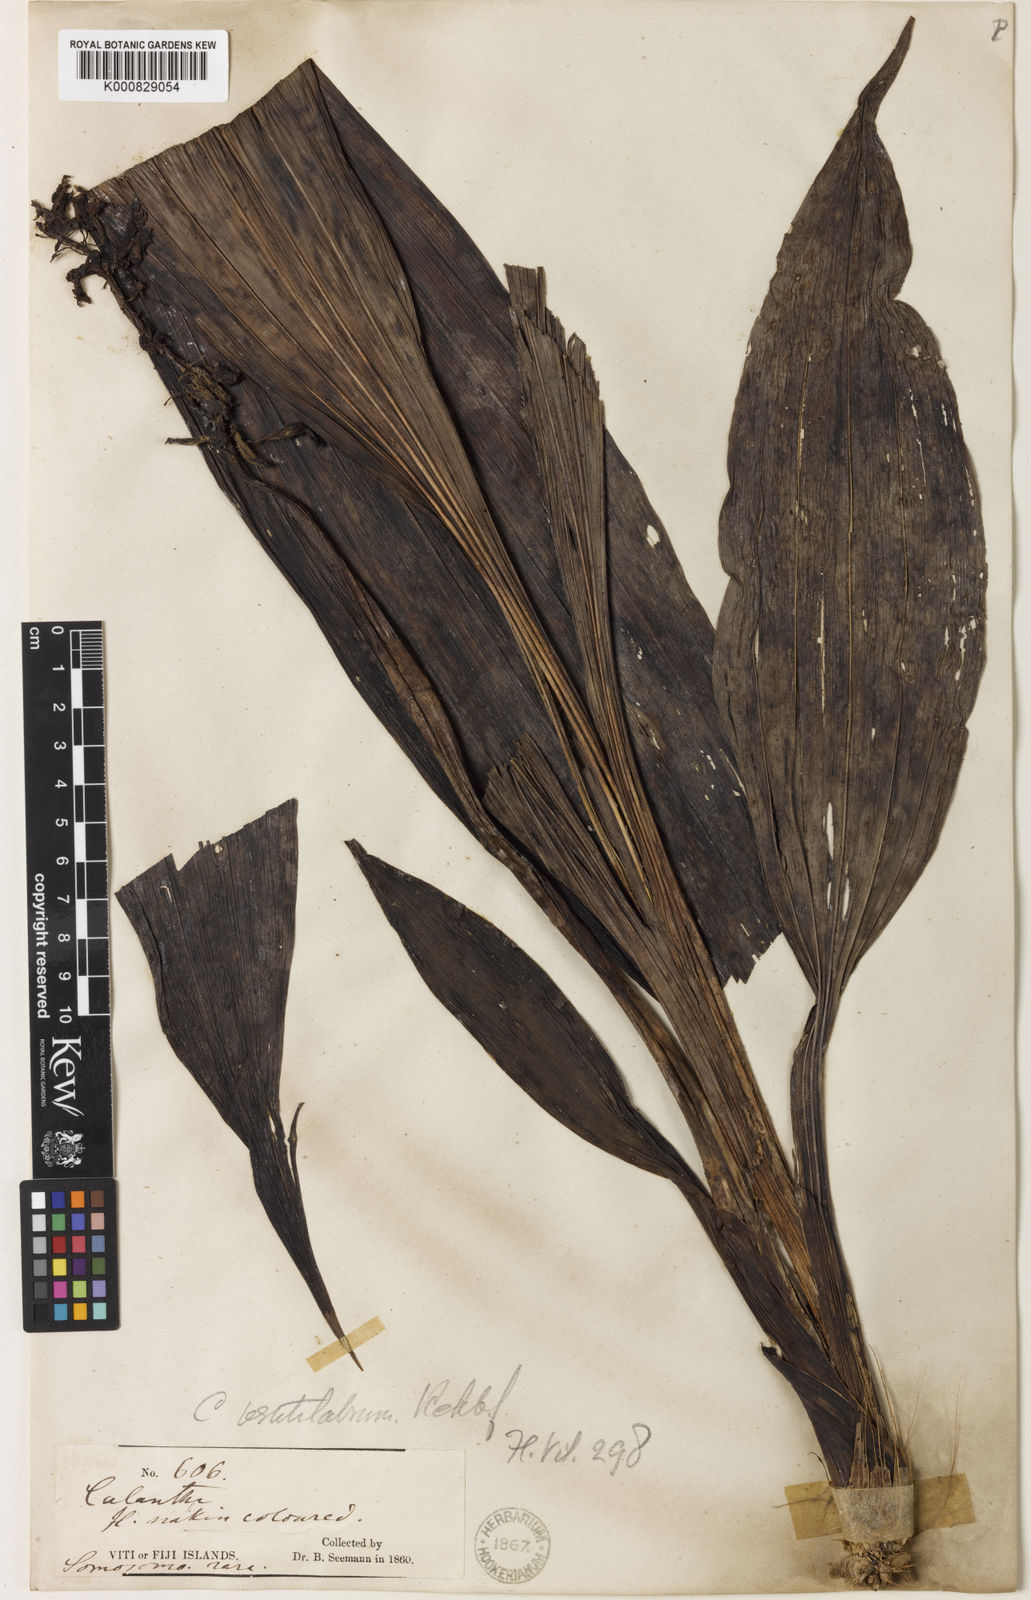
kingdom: Plantae
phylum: Tracheophyta
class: Liliopsida
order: Asparagales
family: Orchidaceae
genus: Calanthe
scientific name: Calanthe ventilabrum
